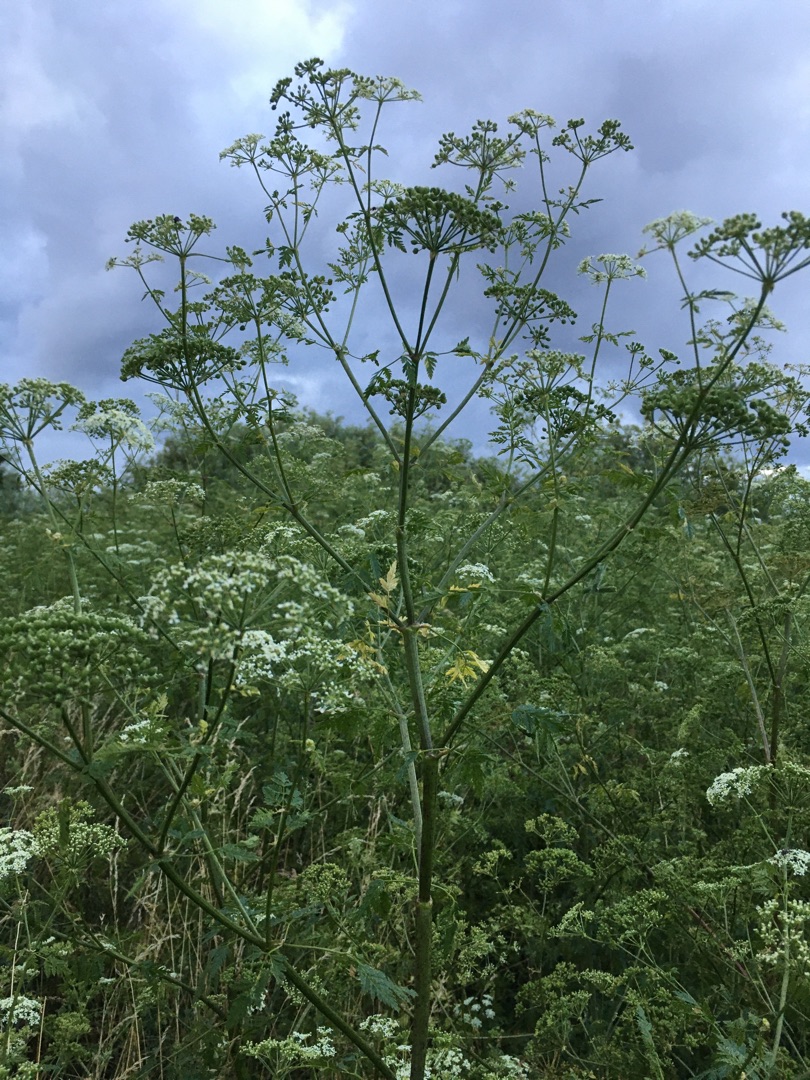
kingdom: Plantae
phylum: Tracheophyta
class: Magnoliopsida
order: Apiales
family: Apiaceae
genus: Conium
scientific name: Conium maculatum
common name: Skarntyde
